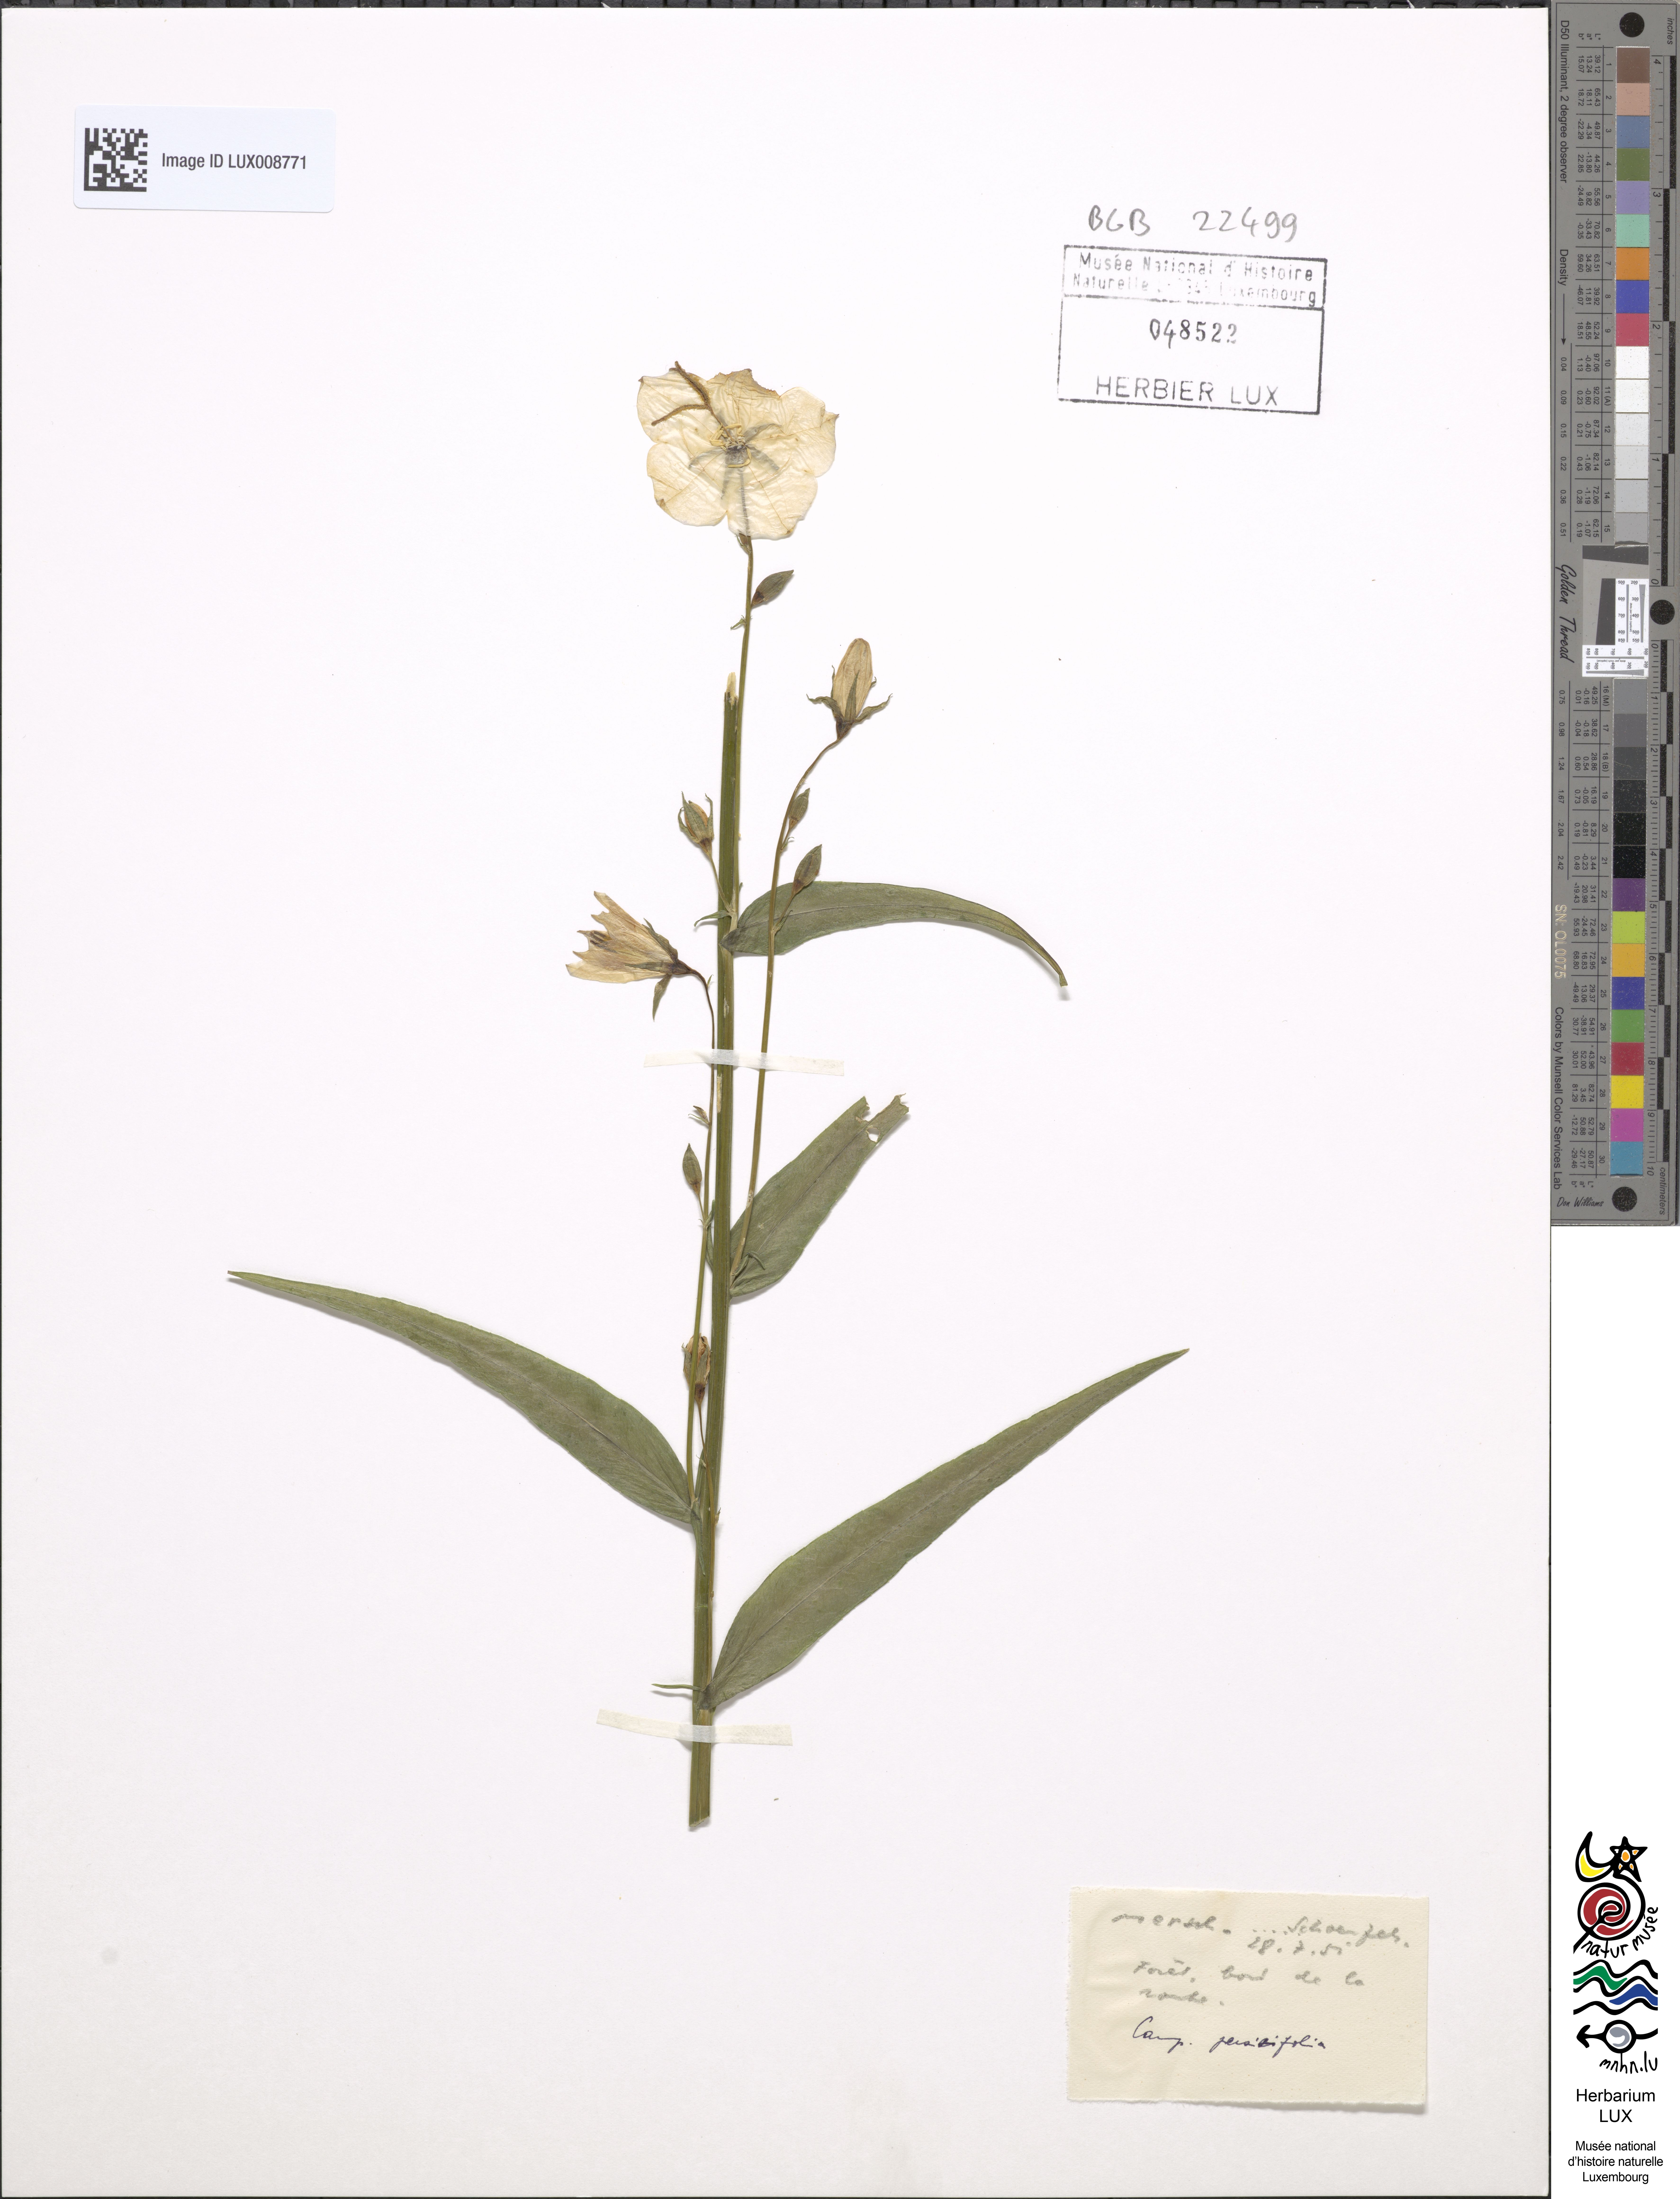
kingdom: Plantae
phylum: Tracheophyta
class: Magnoliopsida
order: Asterales
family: Campanulaceae
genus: Campanula
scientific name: Campanula persicifolia
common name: Peach-leaved bellflower
